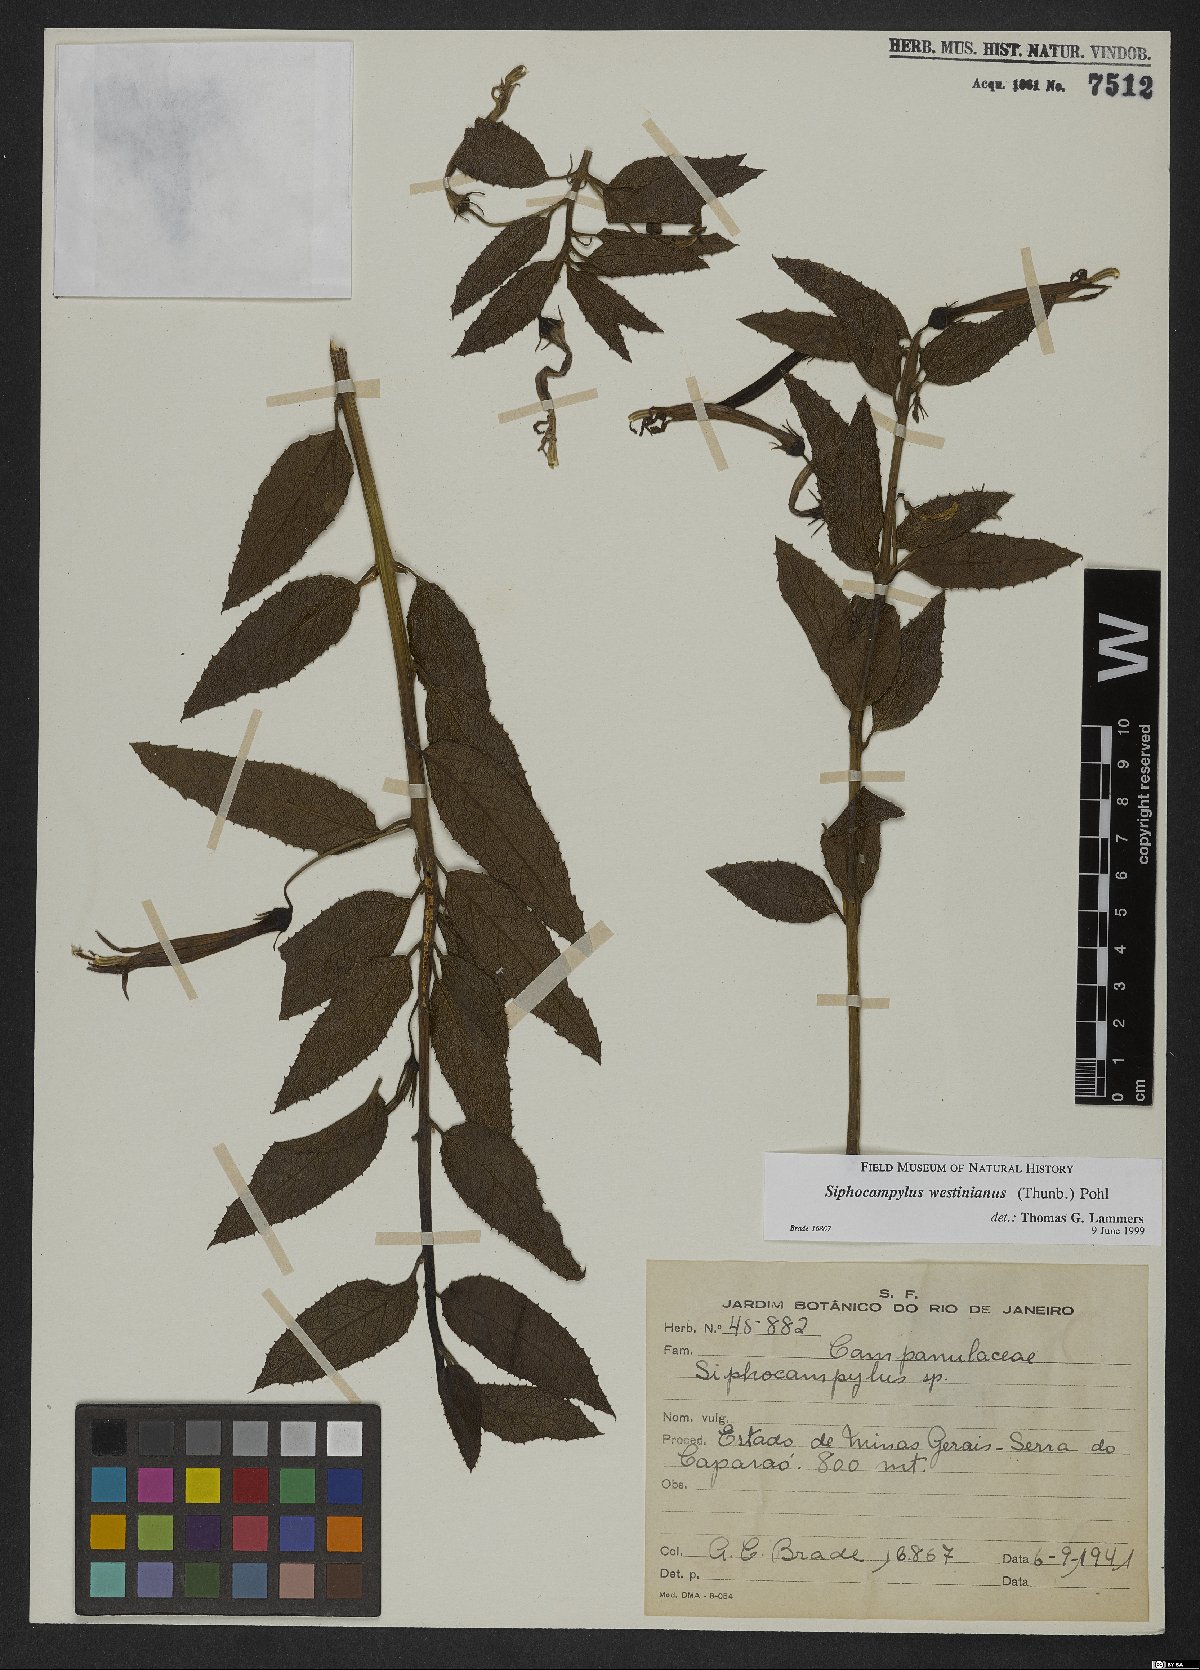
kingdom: Plantae
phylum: Tracheophyta
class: Magnoliopsida
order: Asterales
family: Campanulaceae
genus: Siphocampylus
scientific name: Siphocampylus westinianus
